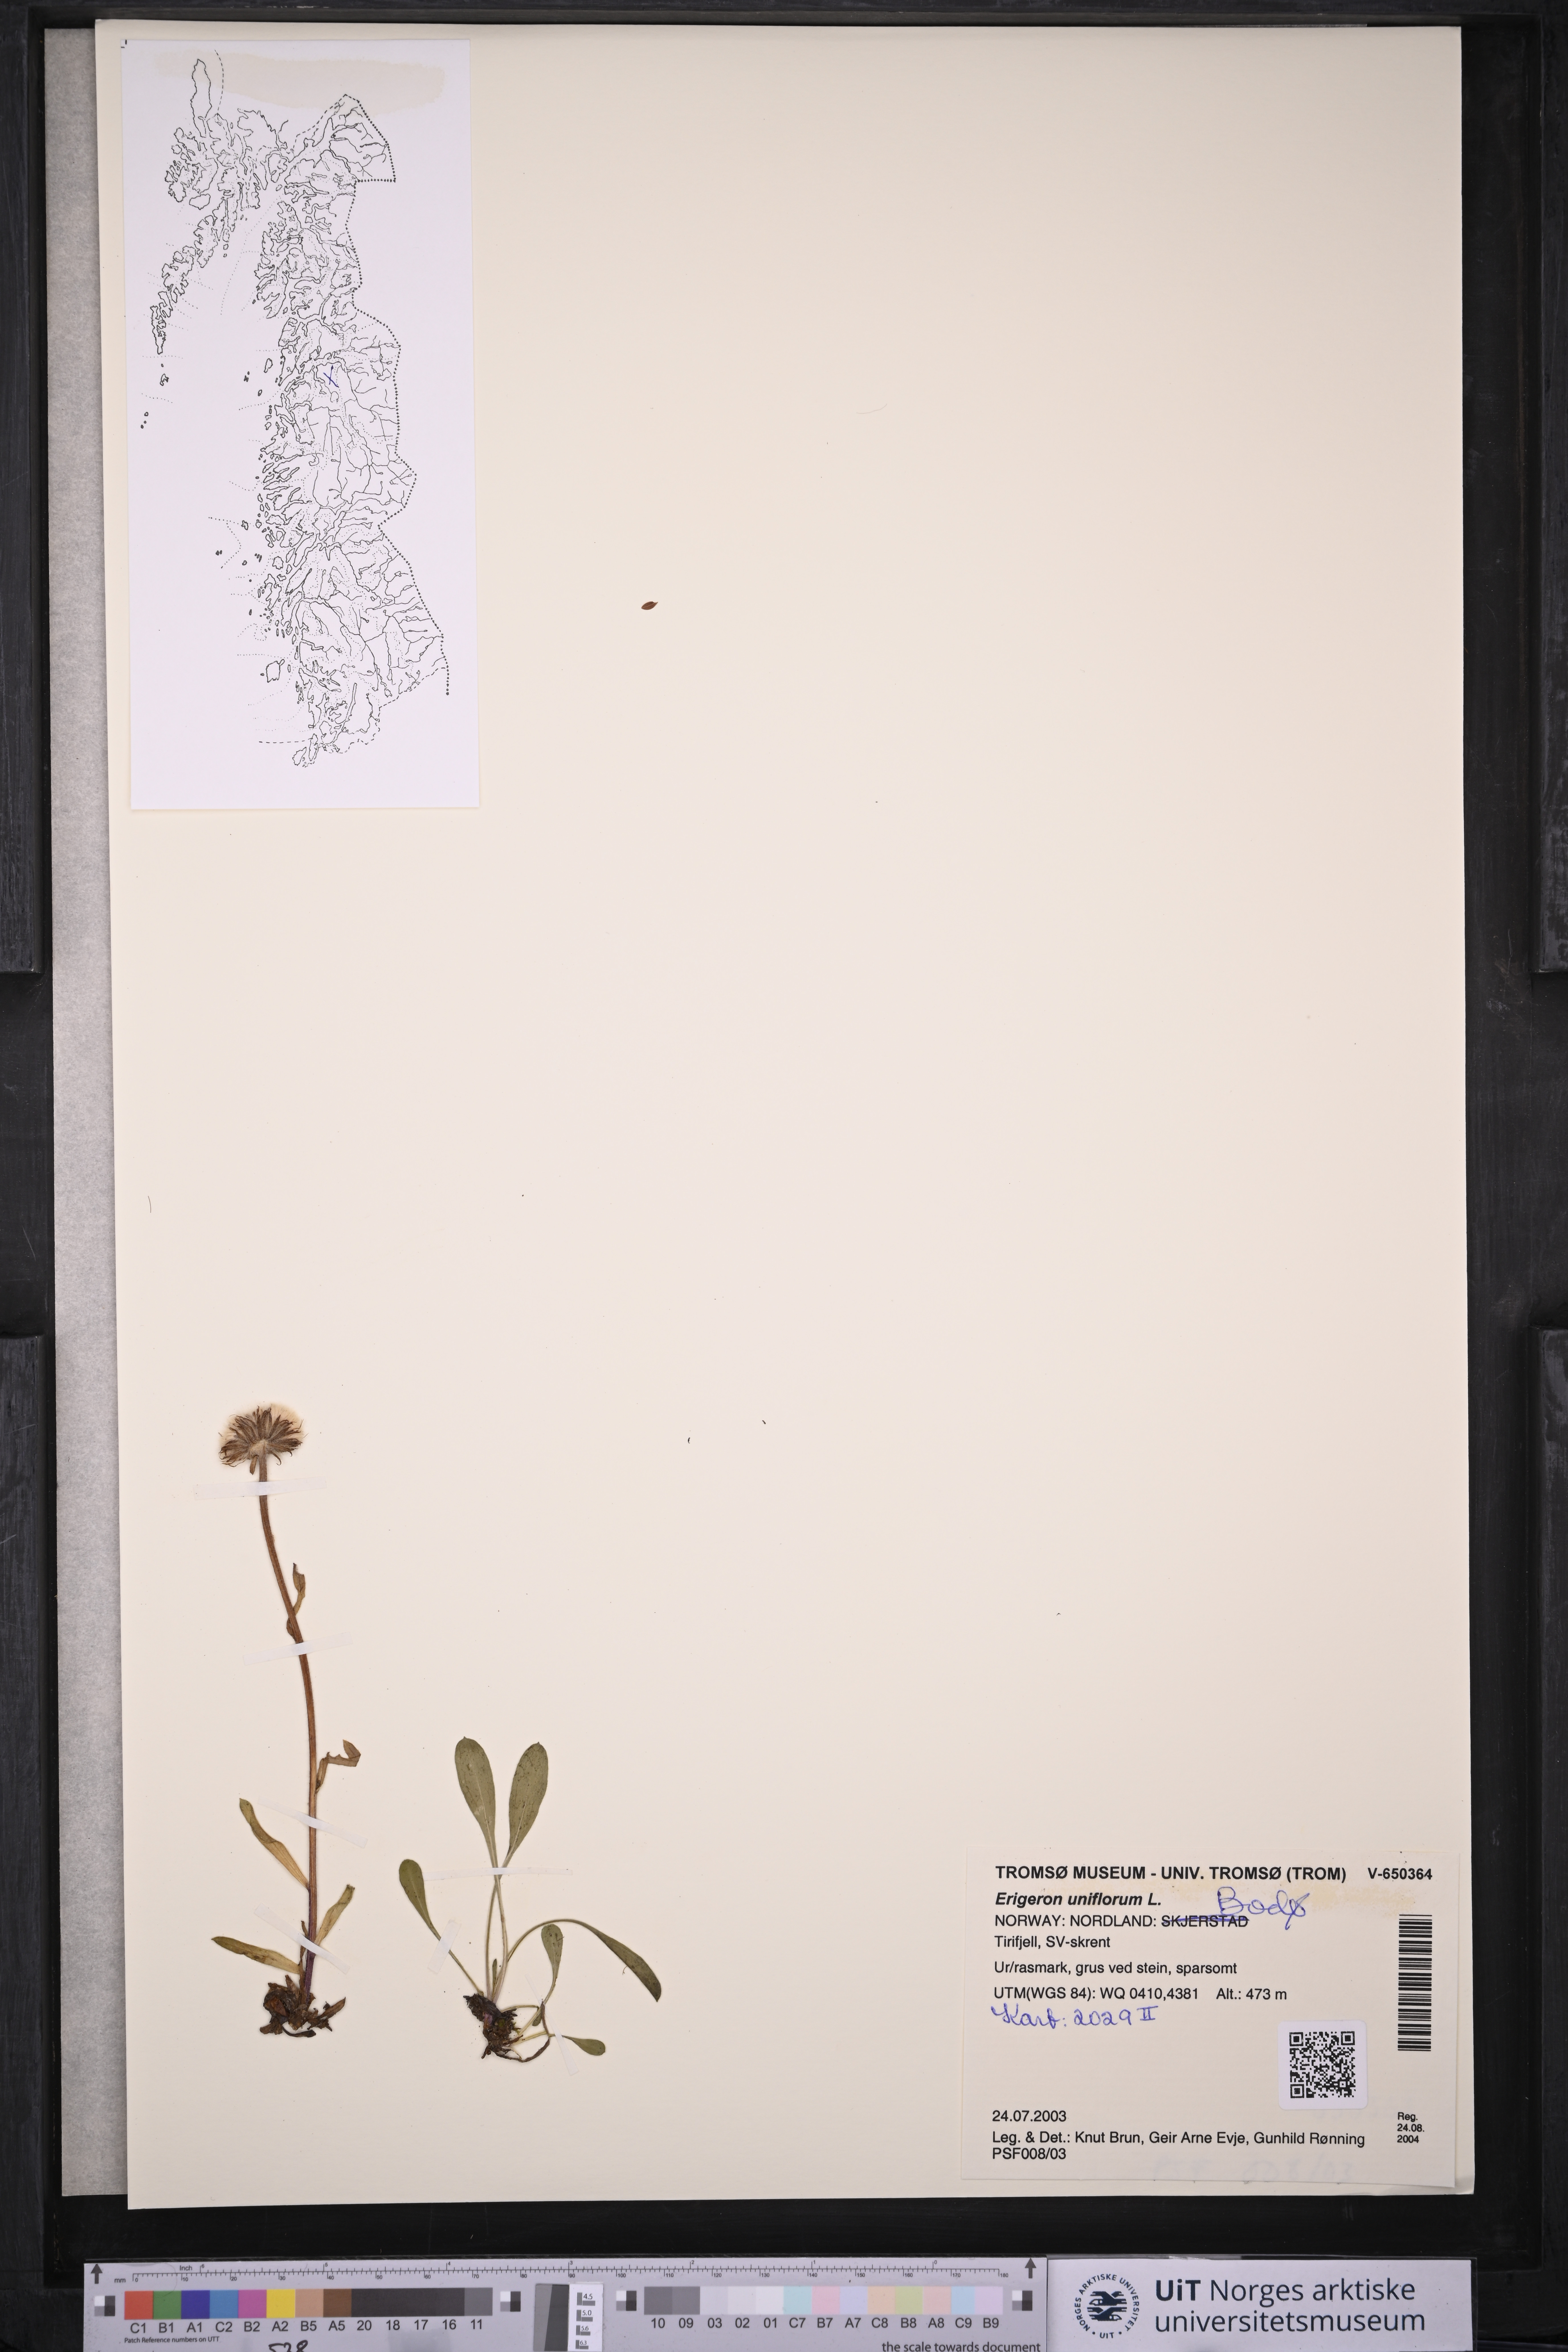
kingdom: Plantae
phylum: Tracheophyta
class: Magnoliopsida
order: Asterales
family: Asteraceae
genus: Erigeron
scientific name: Erigeron uniflorus
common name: Northern daisy
